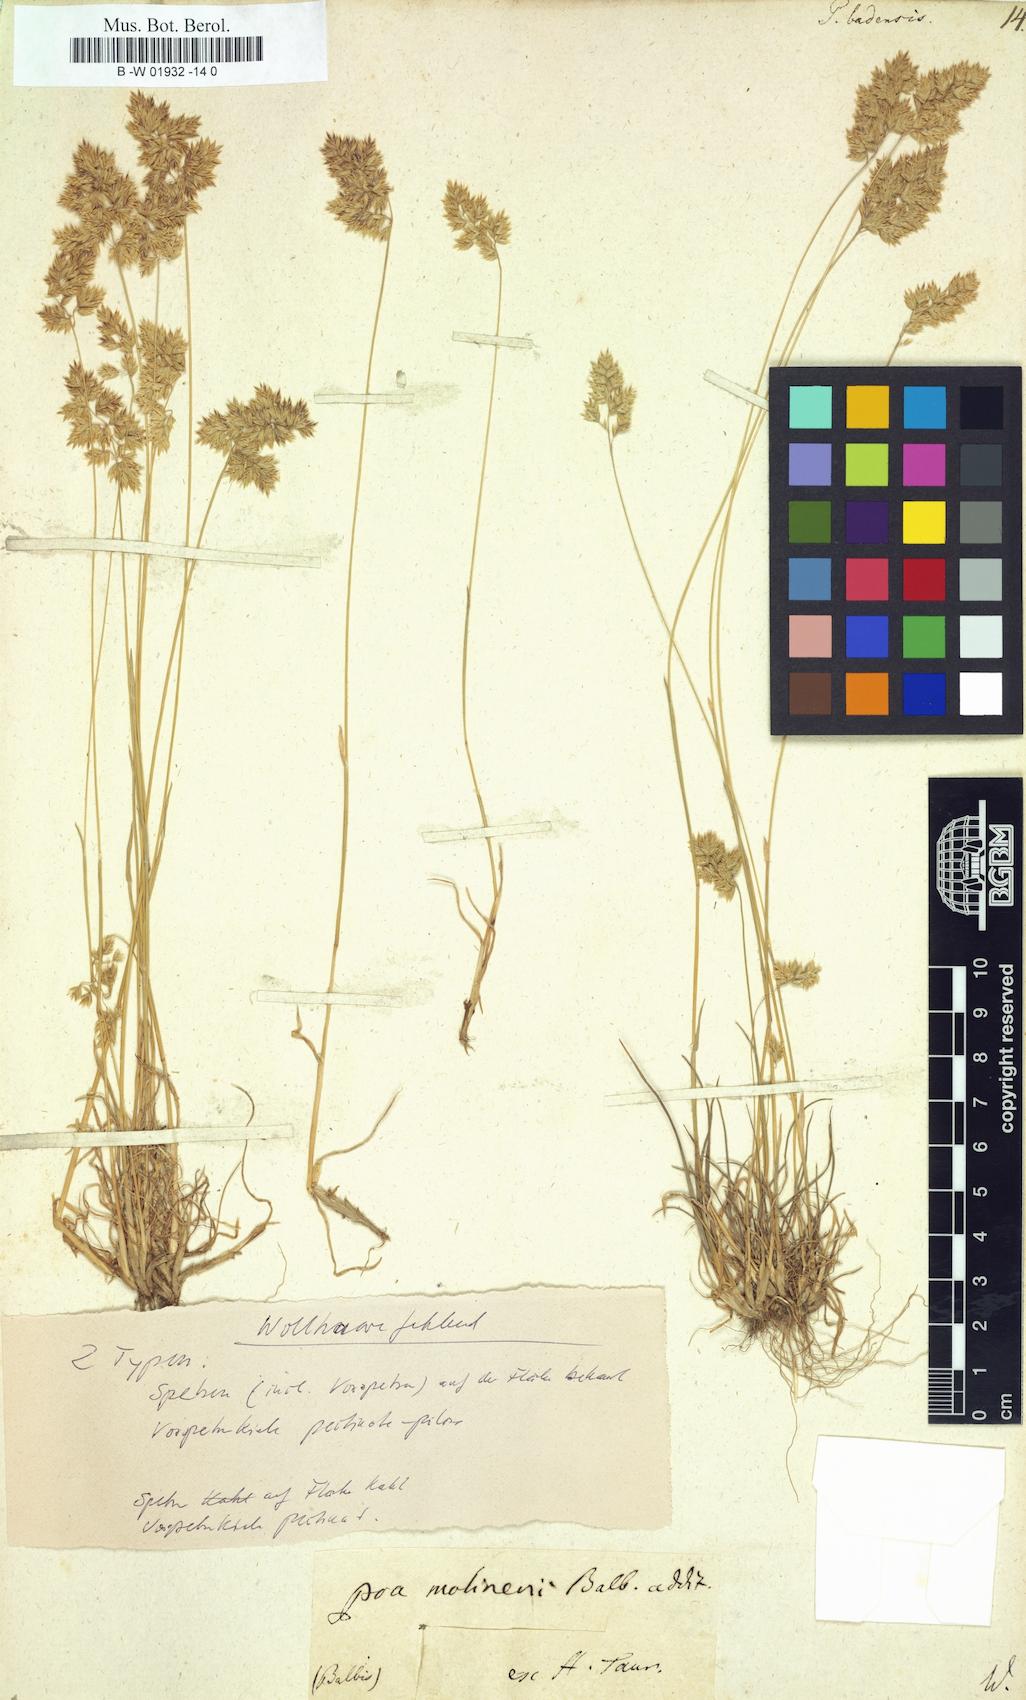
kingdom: Plantae
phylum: Tracheophyta
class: Liliopsida
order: Poales
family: Poaceae
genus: Poa
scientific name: Poa badensis
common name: Baden's bluegrass
